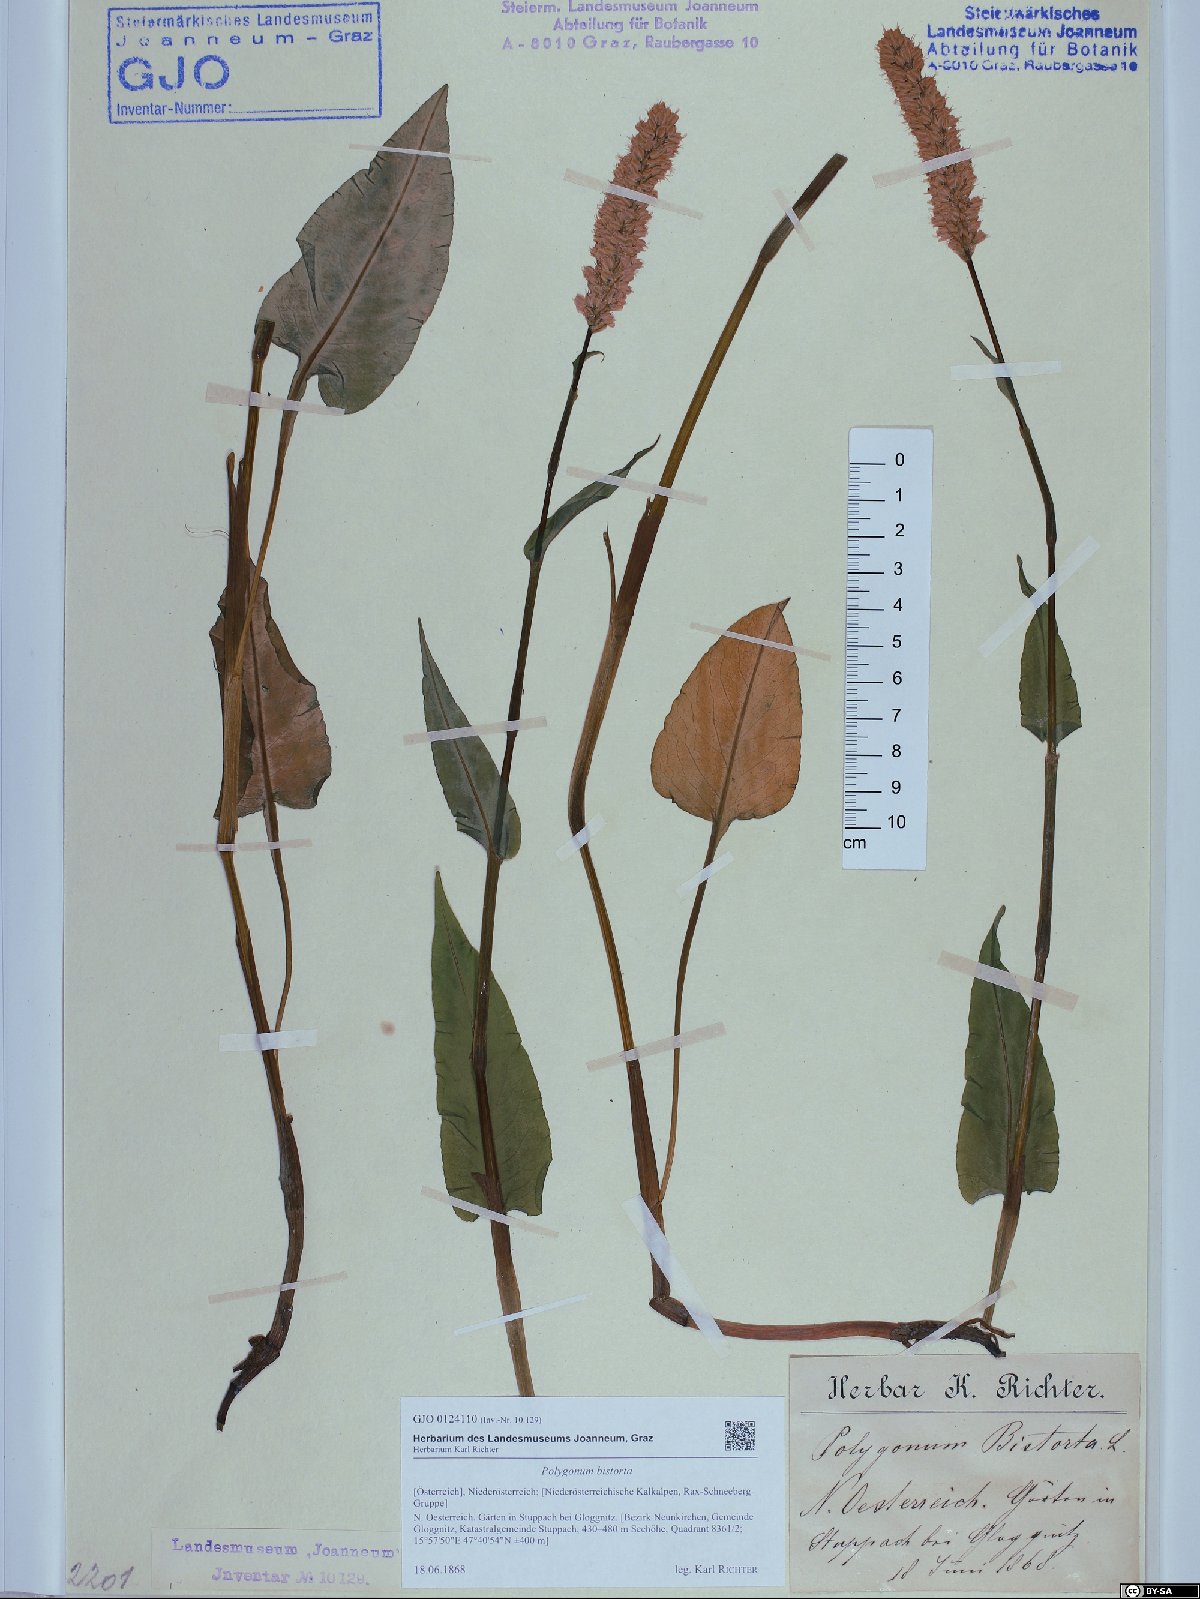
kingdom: Plantae
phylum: Tracheophyta
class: Magnoliopsida
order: Caryophyllales
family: Polygonaceae
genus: Bistorta
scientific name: Bistorta officinalis
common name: Common bistort
